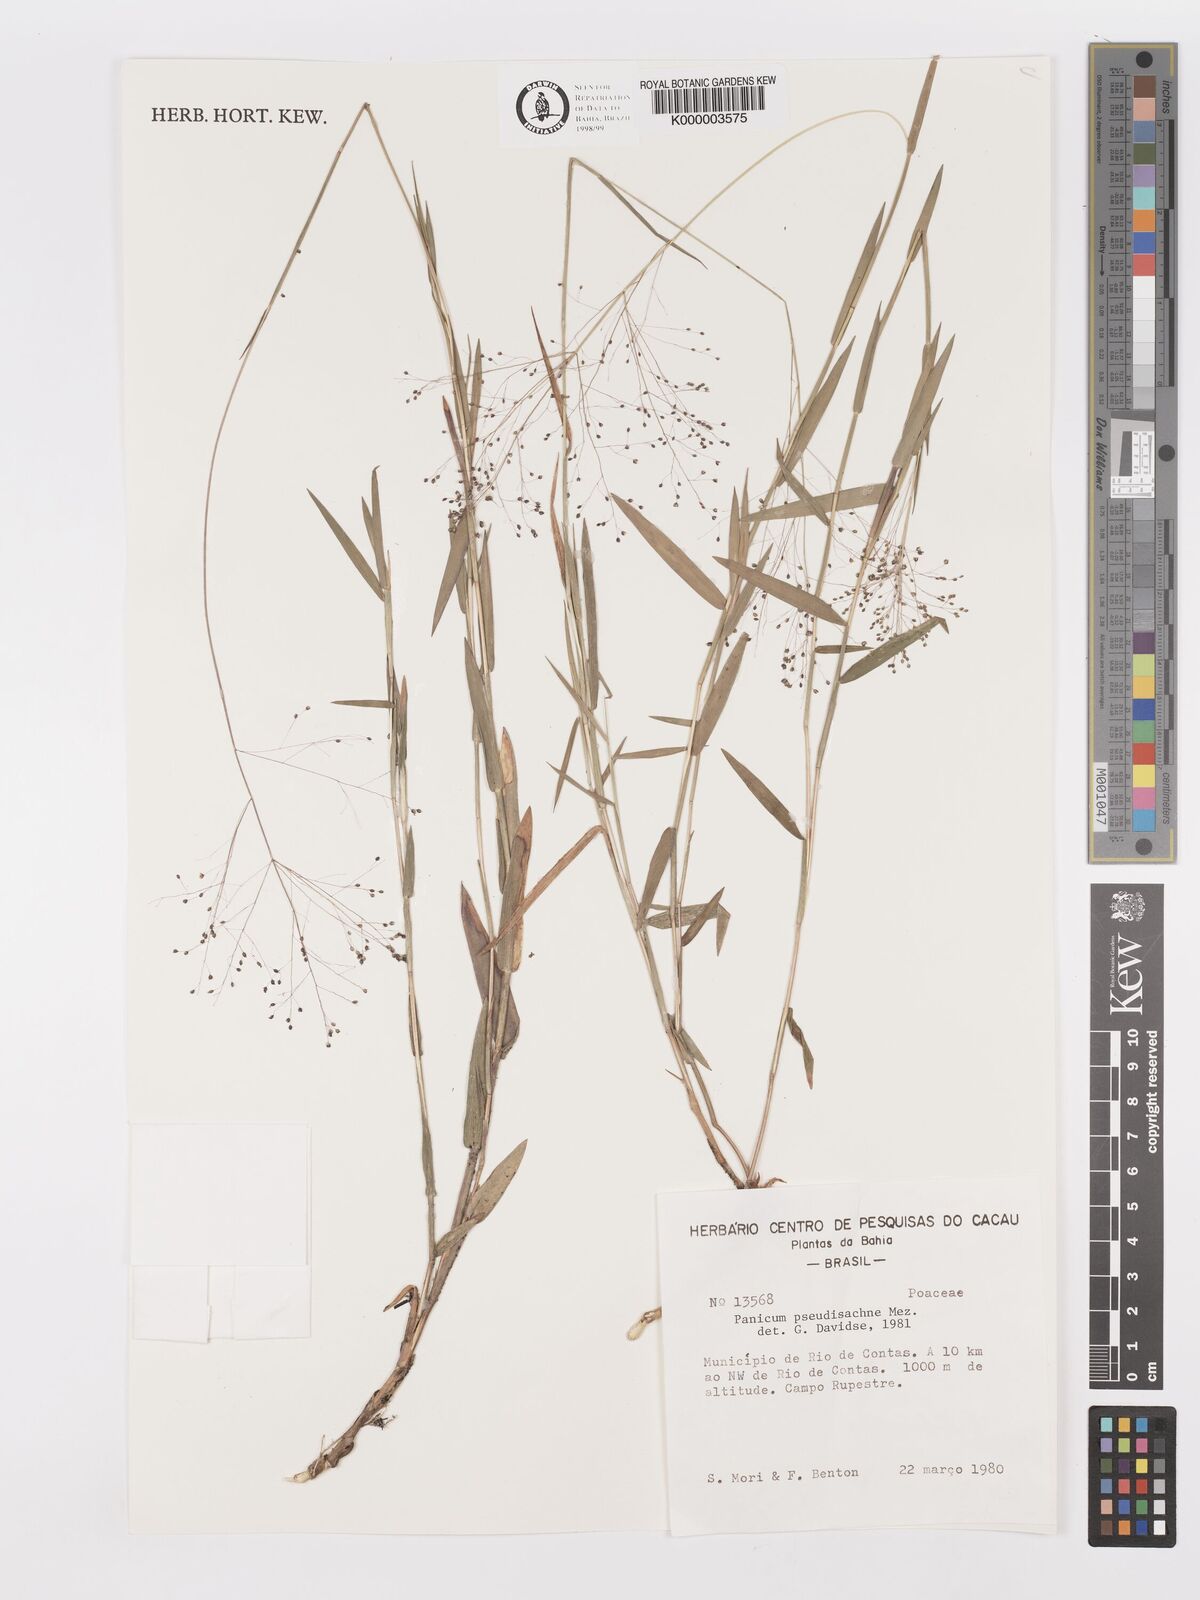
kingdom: Plantae
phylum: Tracheophyta
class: Liliopsida
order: Poales
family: Poaceae
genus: Trichanthecium
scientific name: Trichanthecium pseudisachne
